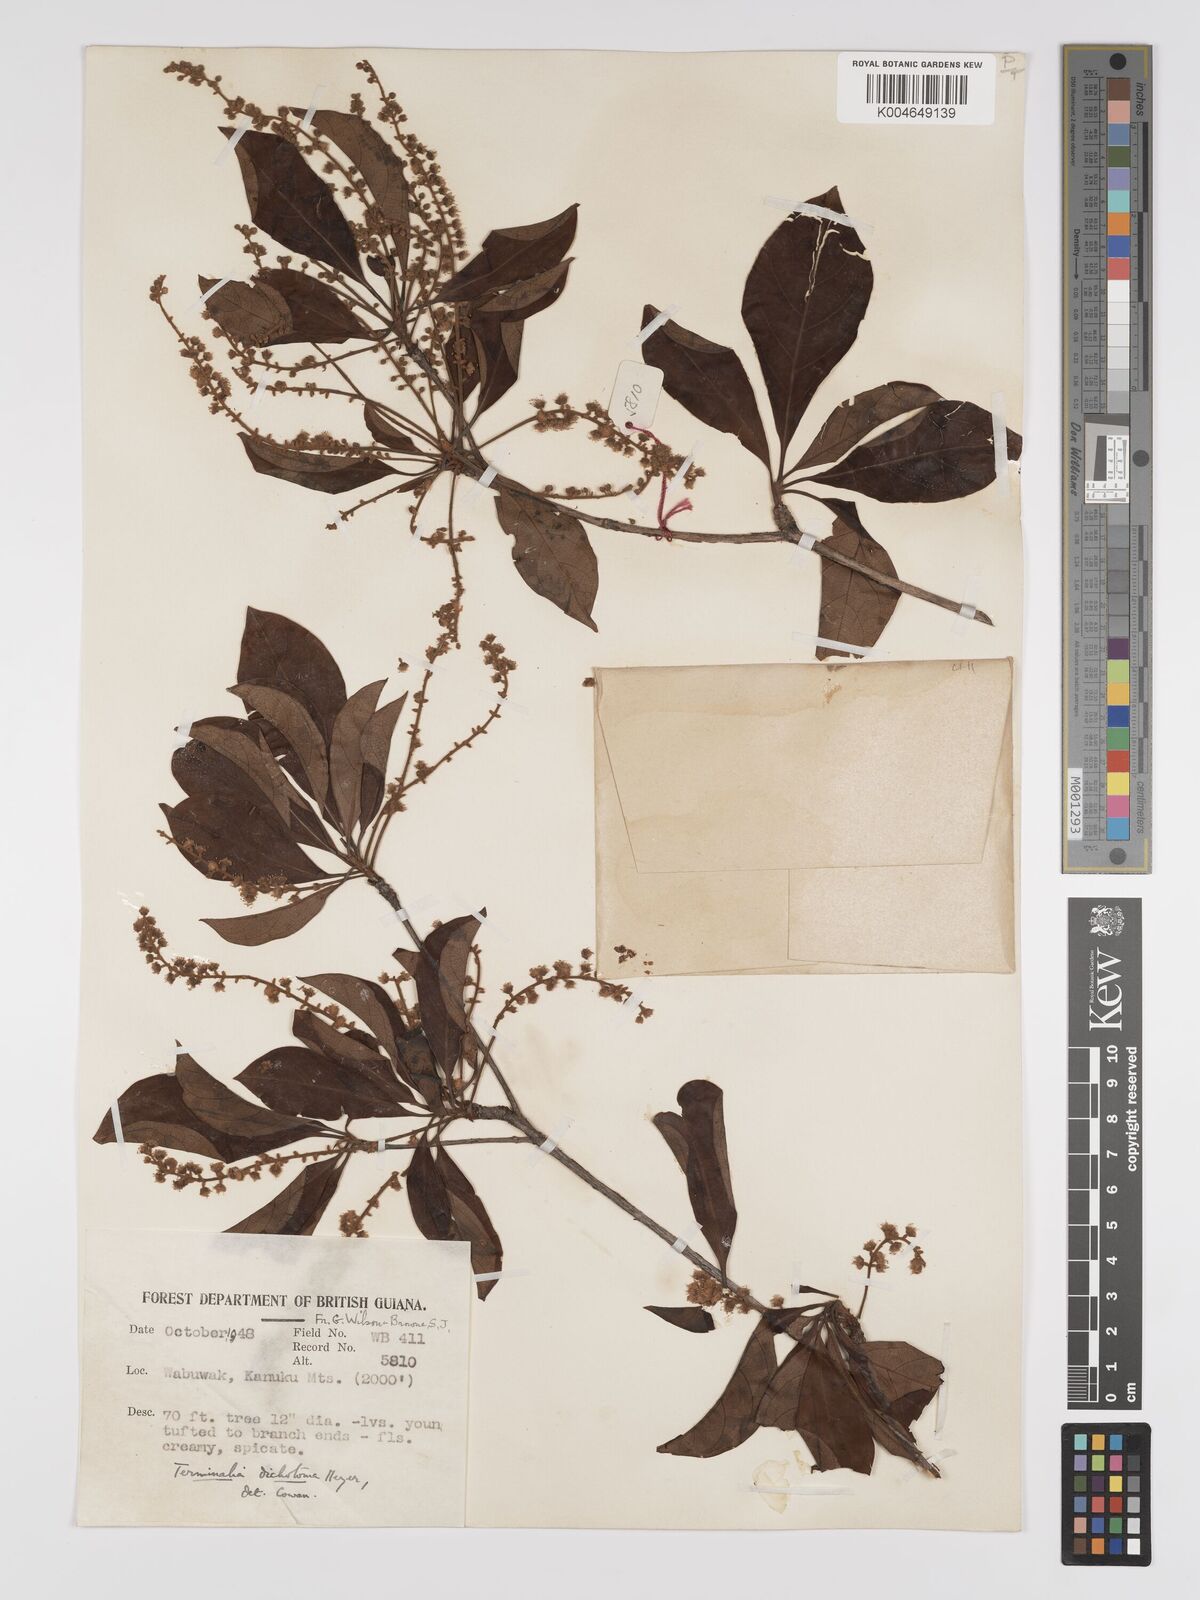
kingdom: Plantae
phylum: Tracheophyta
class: Magnoliopsida
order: Myrtales
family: Combretaceae
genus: Terminalia
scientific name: Terminalia dichotoma
